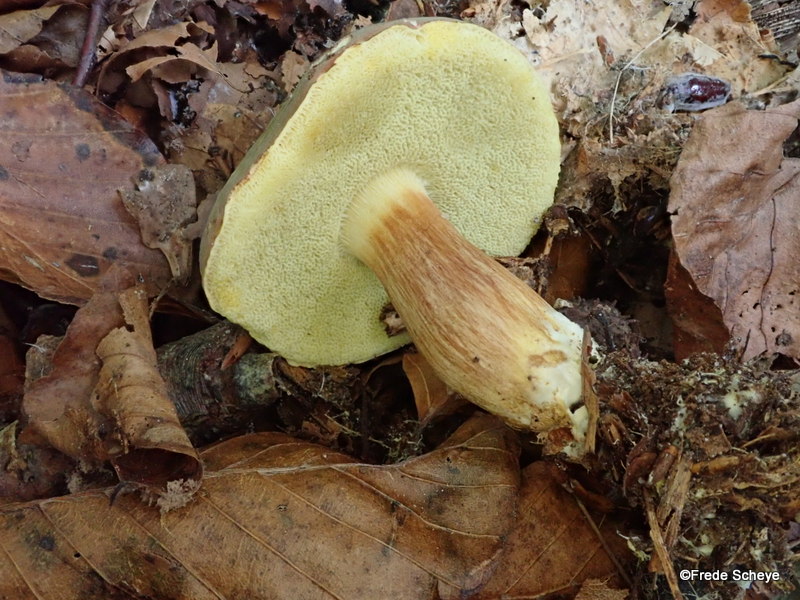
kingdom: Fungi
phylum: Basidiomycota
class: Agaricomycetes
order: Boletales
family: Boletaceae
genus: Xerocomellus
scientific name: Xerocomellus pruinatus
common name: dugget rørhat
